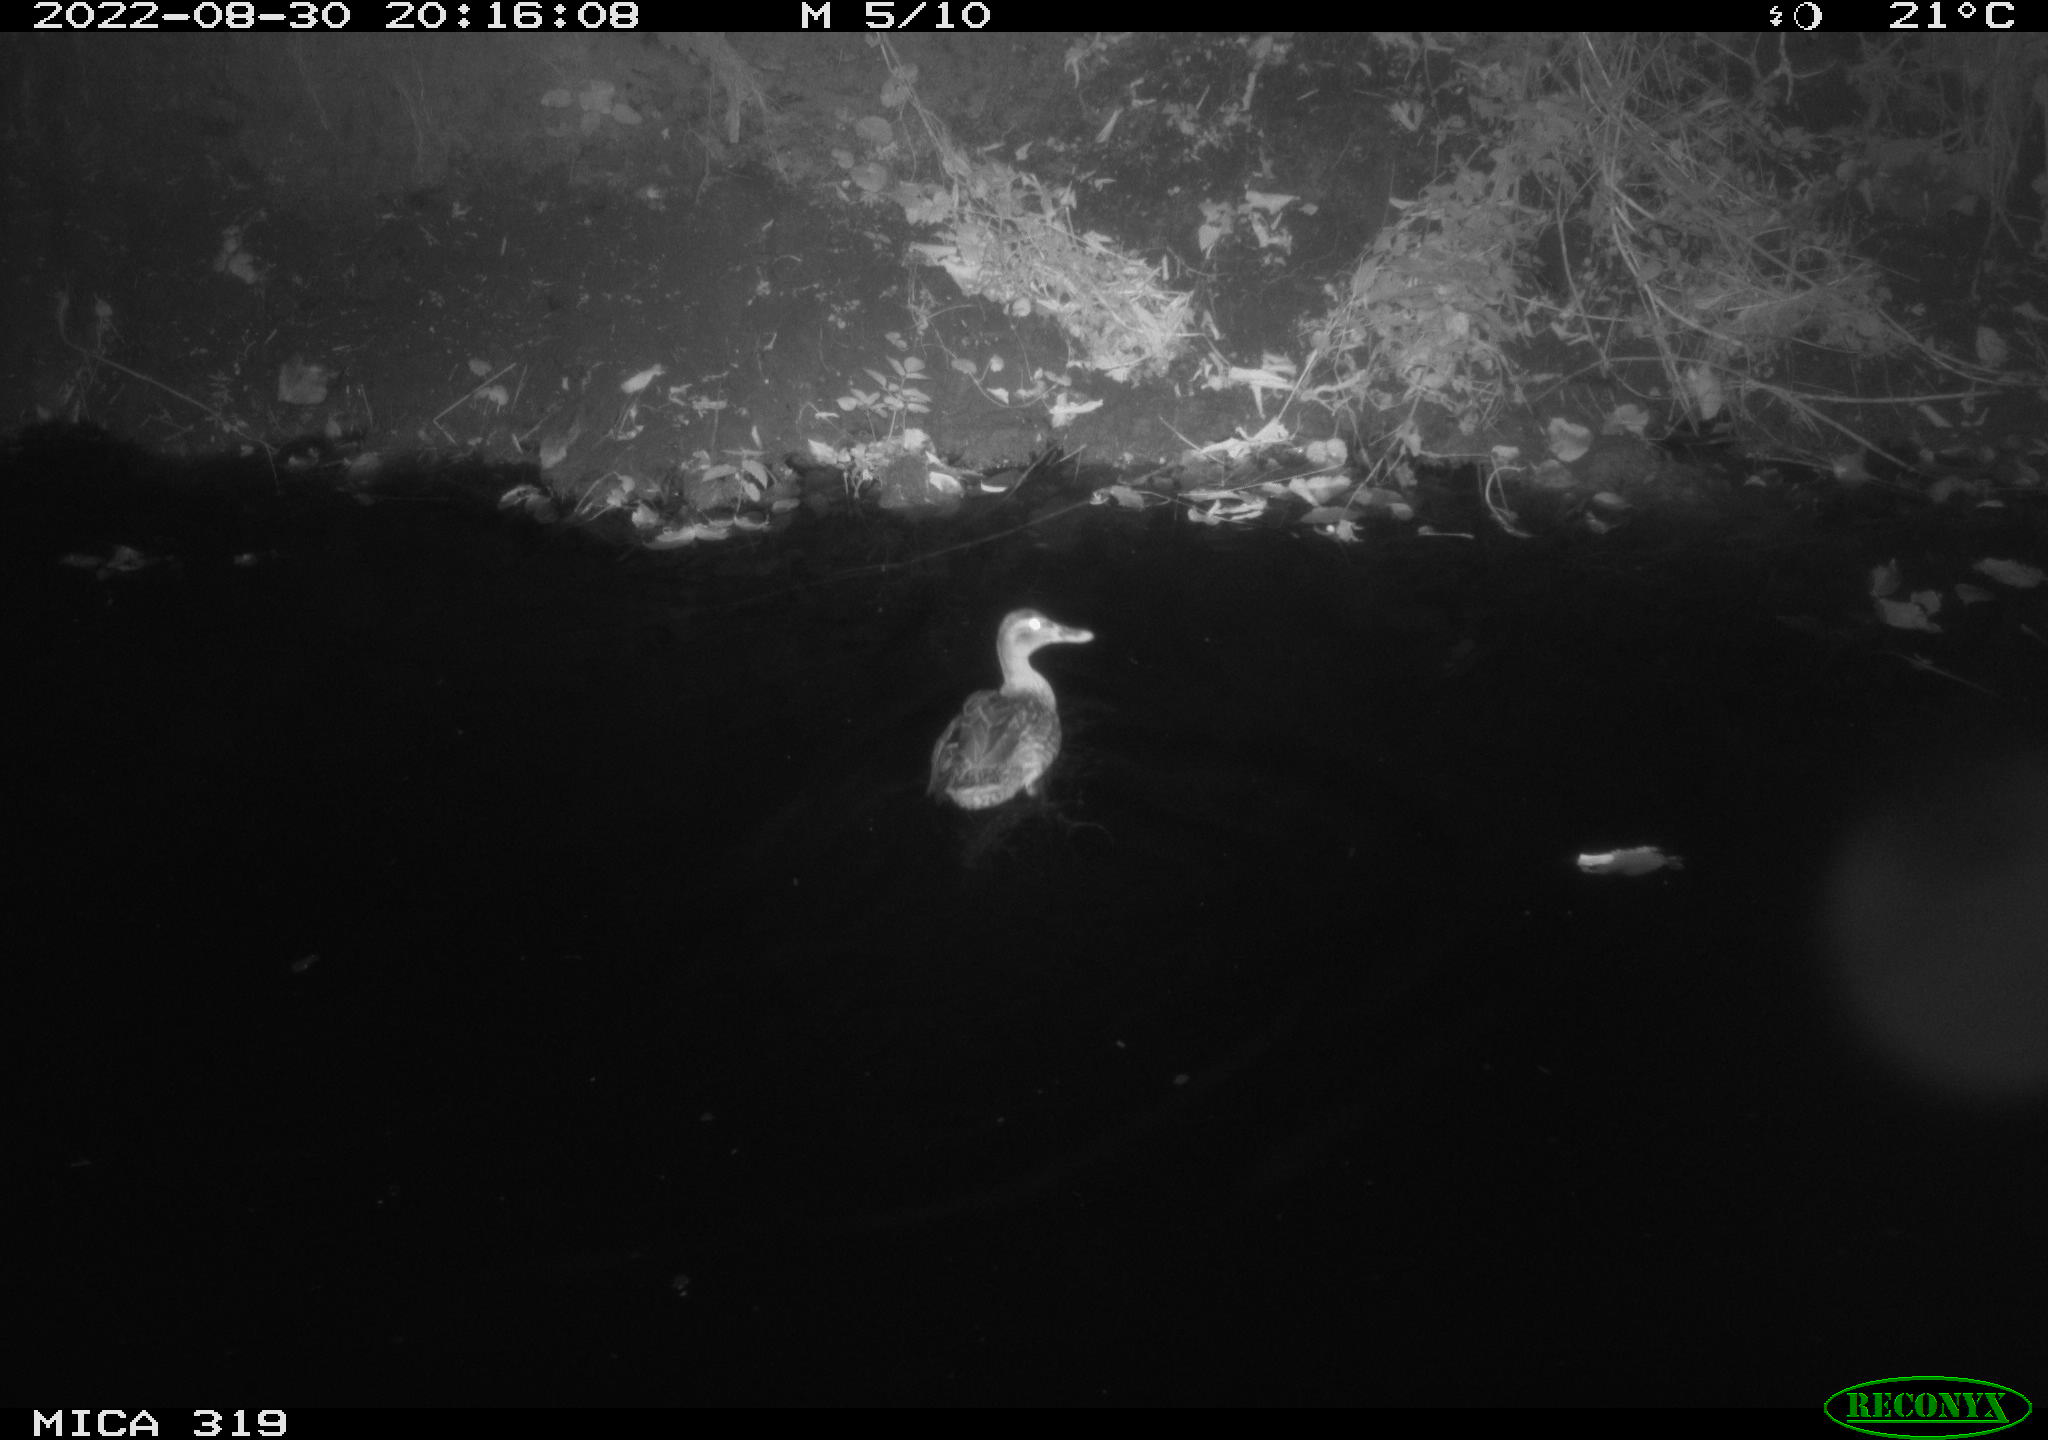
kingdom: Animalia
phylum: Chordata
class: Aves
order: Anseriformes
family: Anatidae
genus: Anas
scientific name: Anas
